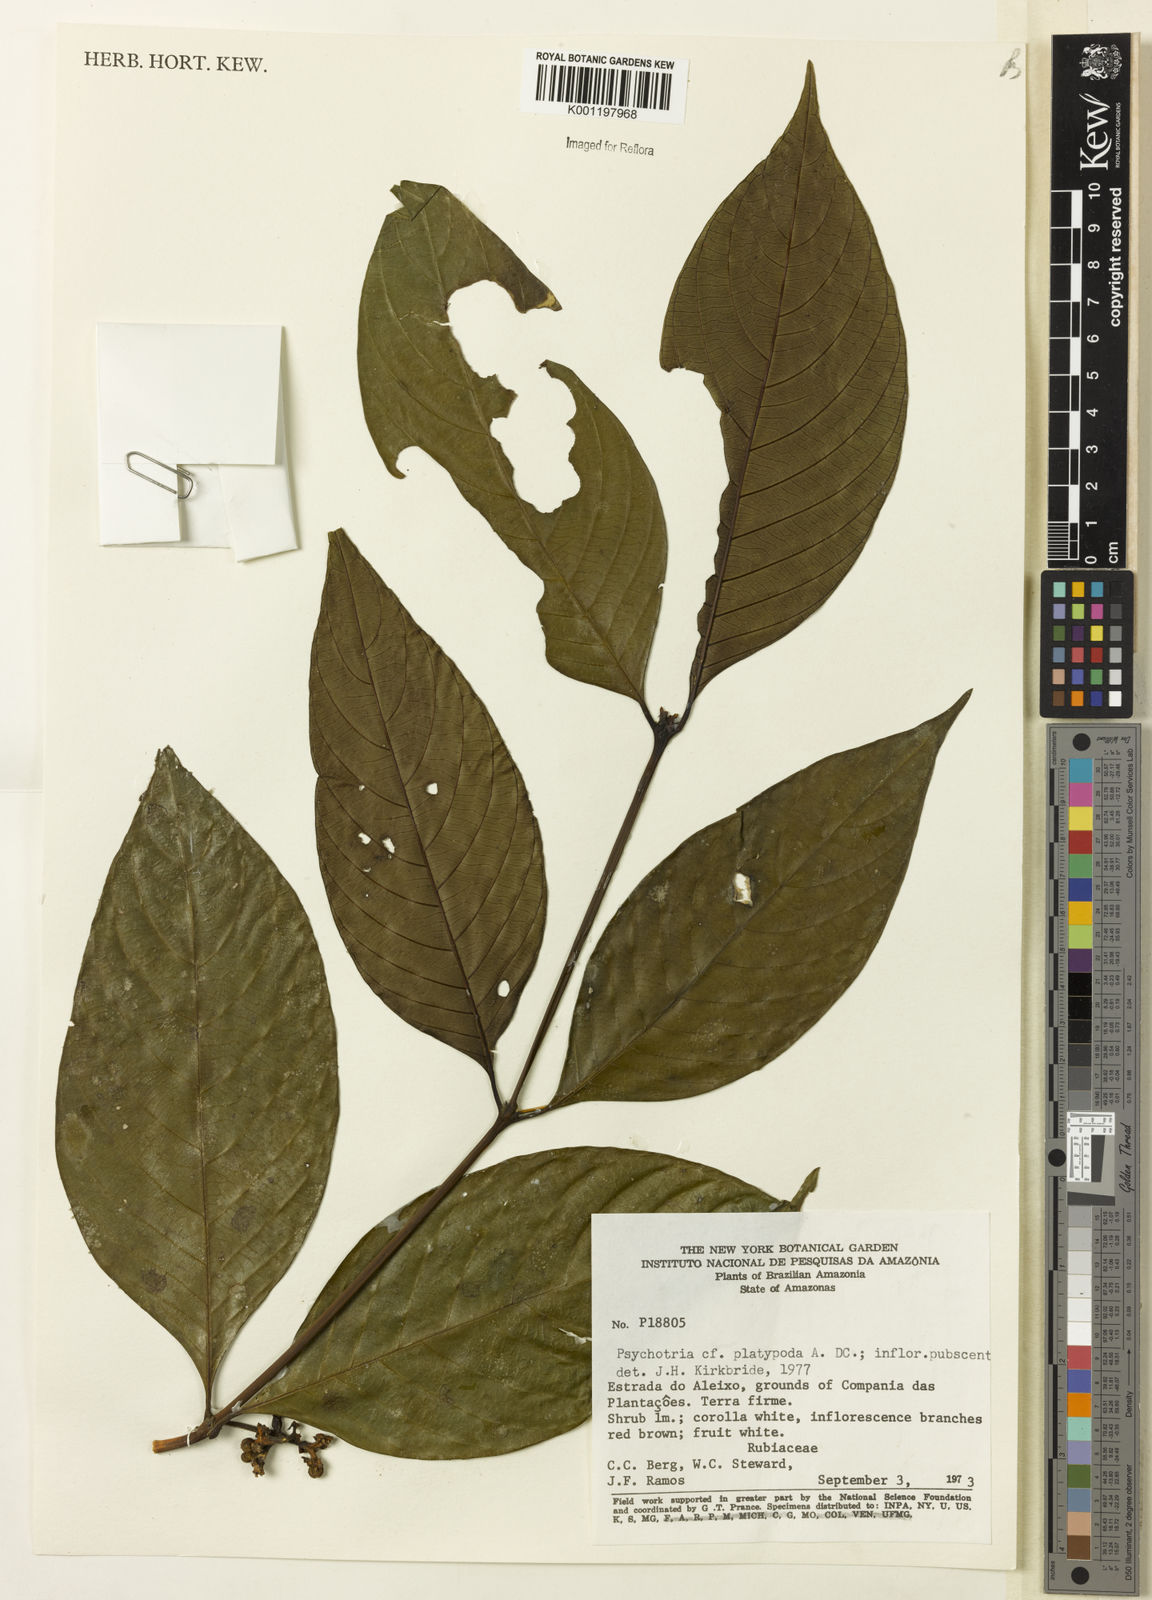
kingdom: Plantae
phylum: Tracheophyta
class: Magnoliopsida
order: Gentianales
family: Rubiaceae
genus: Palicourea
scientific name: Palicourea dichotoma
